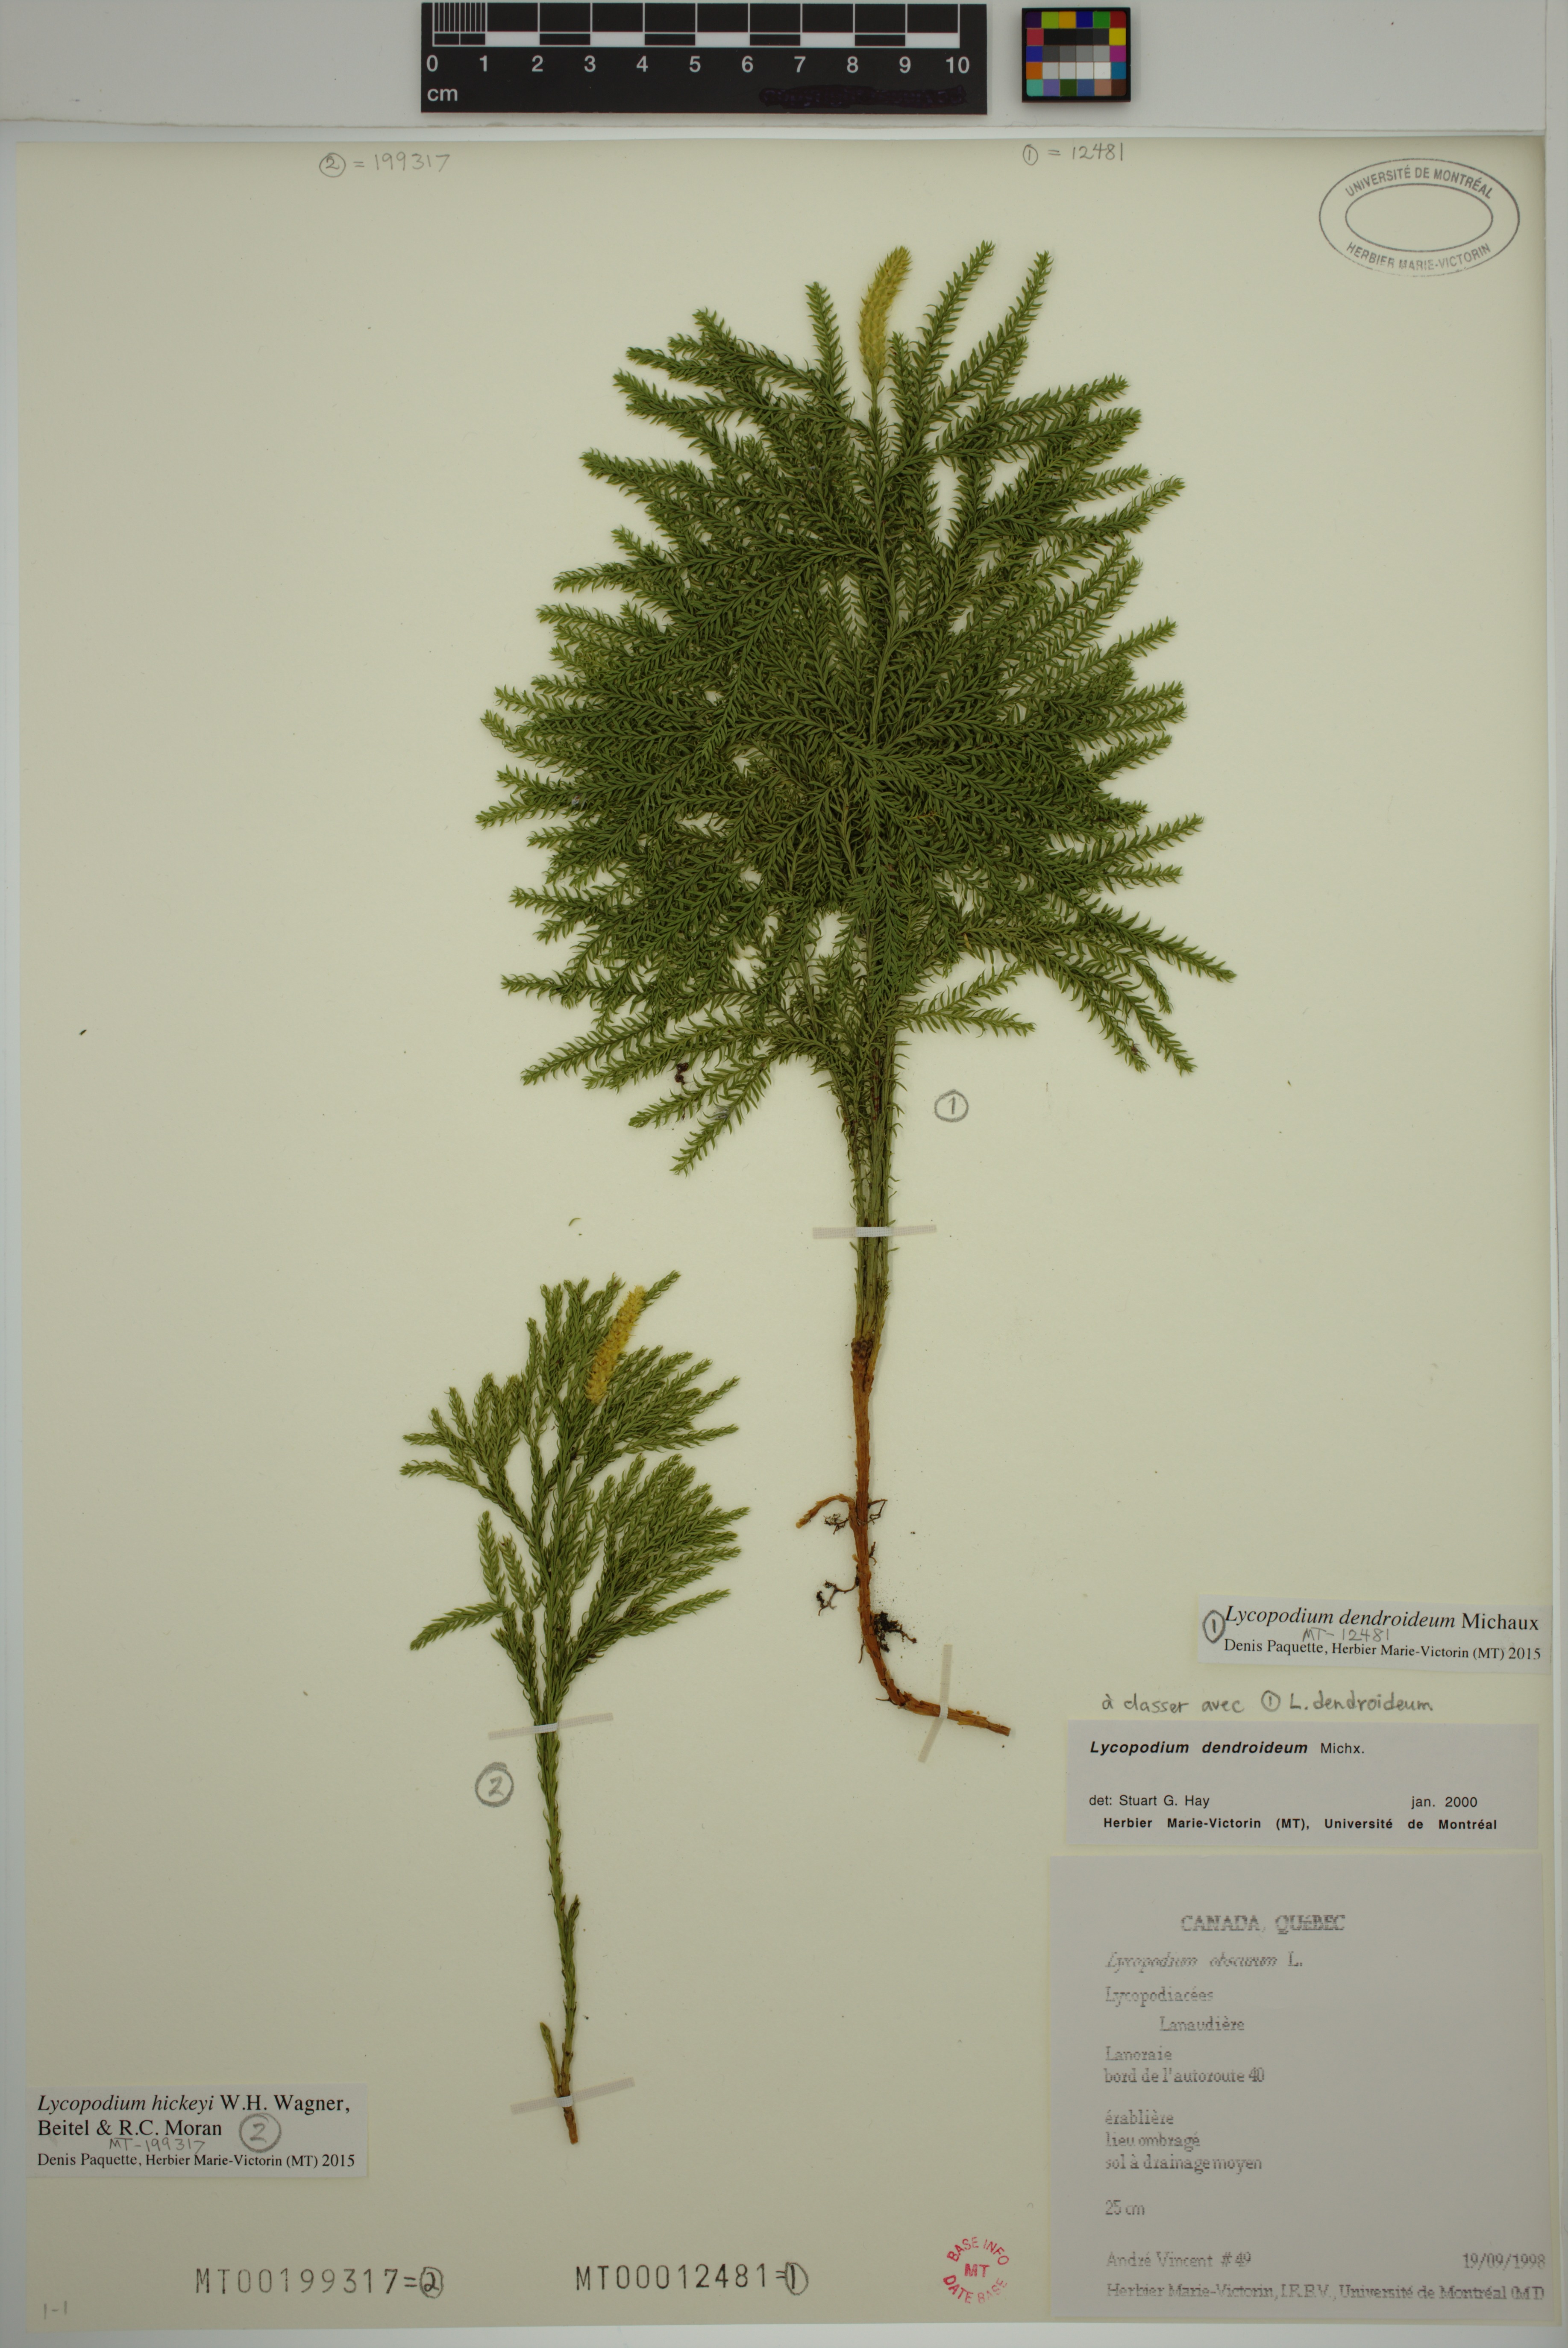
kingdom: Plantae
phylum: Tracheophyta
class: Lycopodiopsida
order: Lycopodiales
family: Lycopodiaceae
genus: Dendrolycopodium
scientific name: Dendrolycopodium dendroideum
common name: Northern tree-clubmoss
